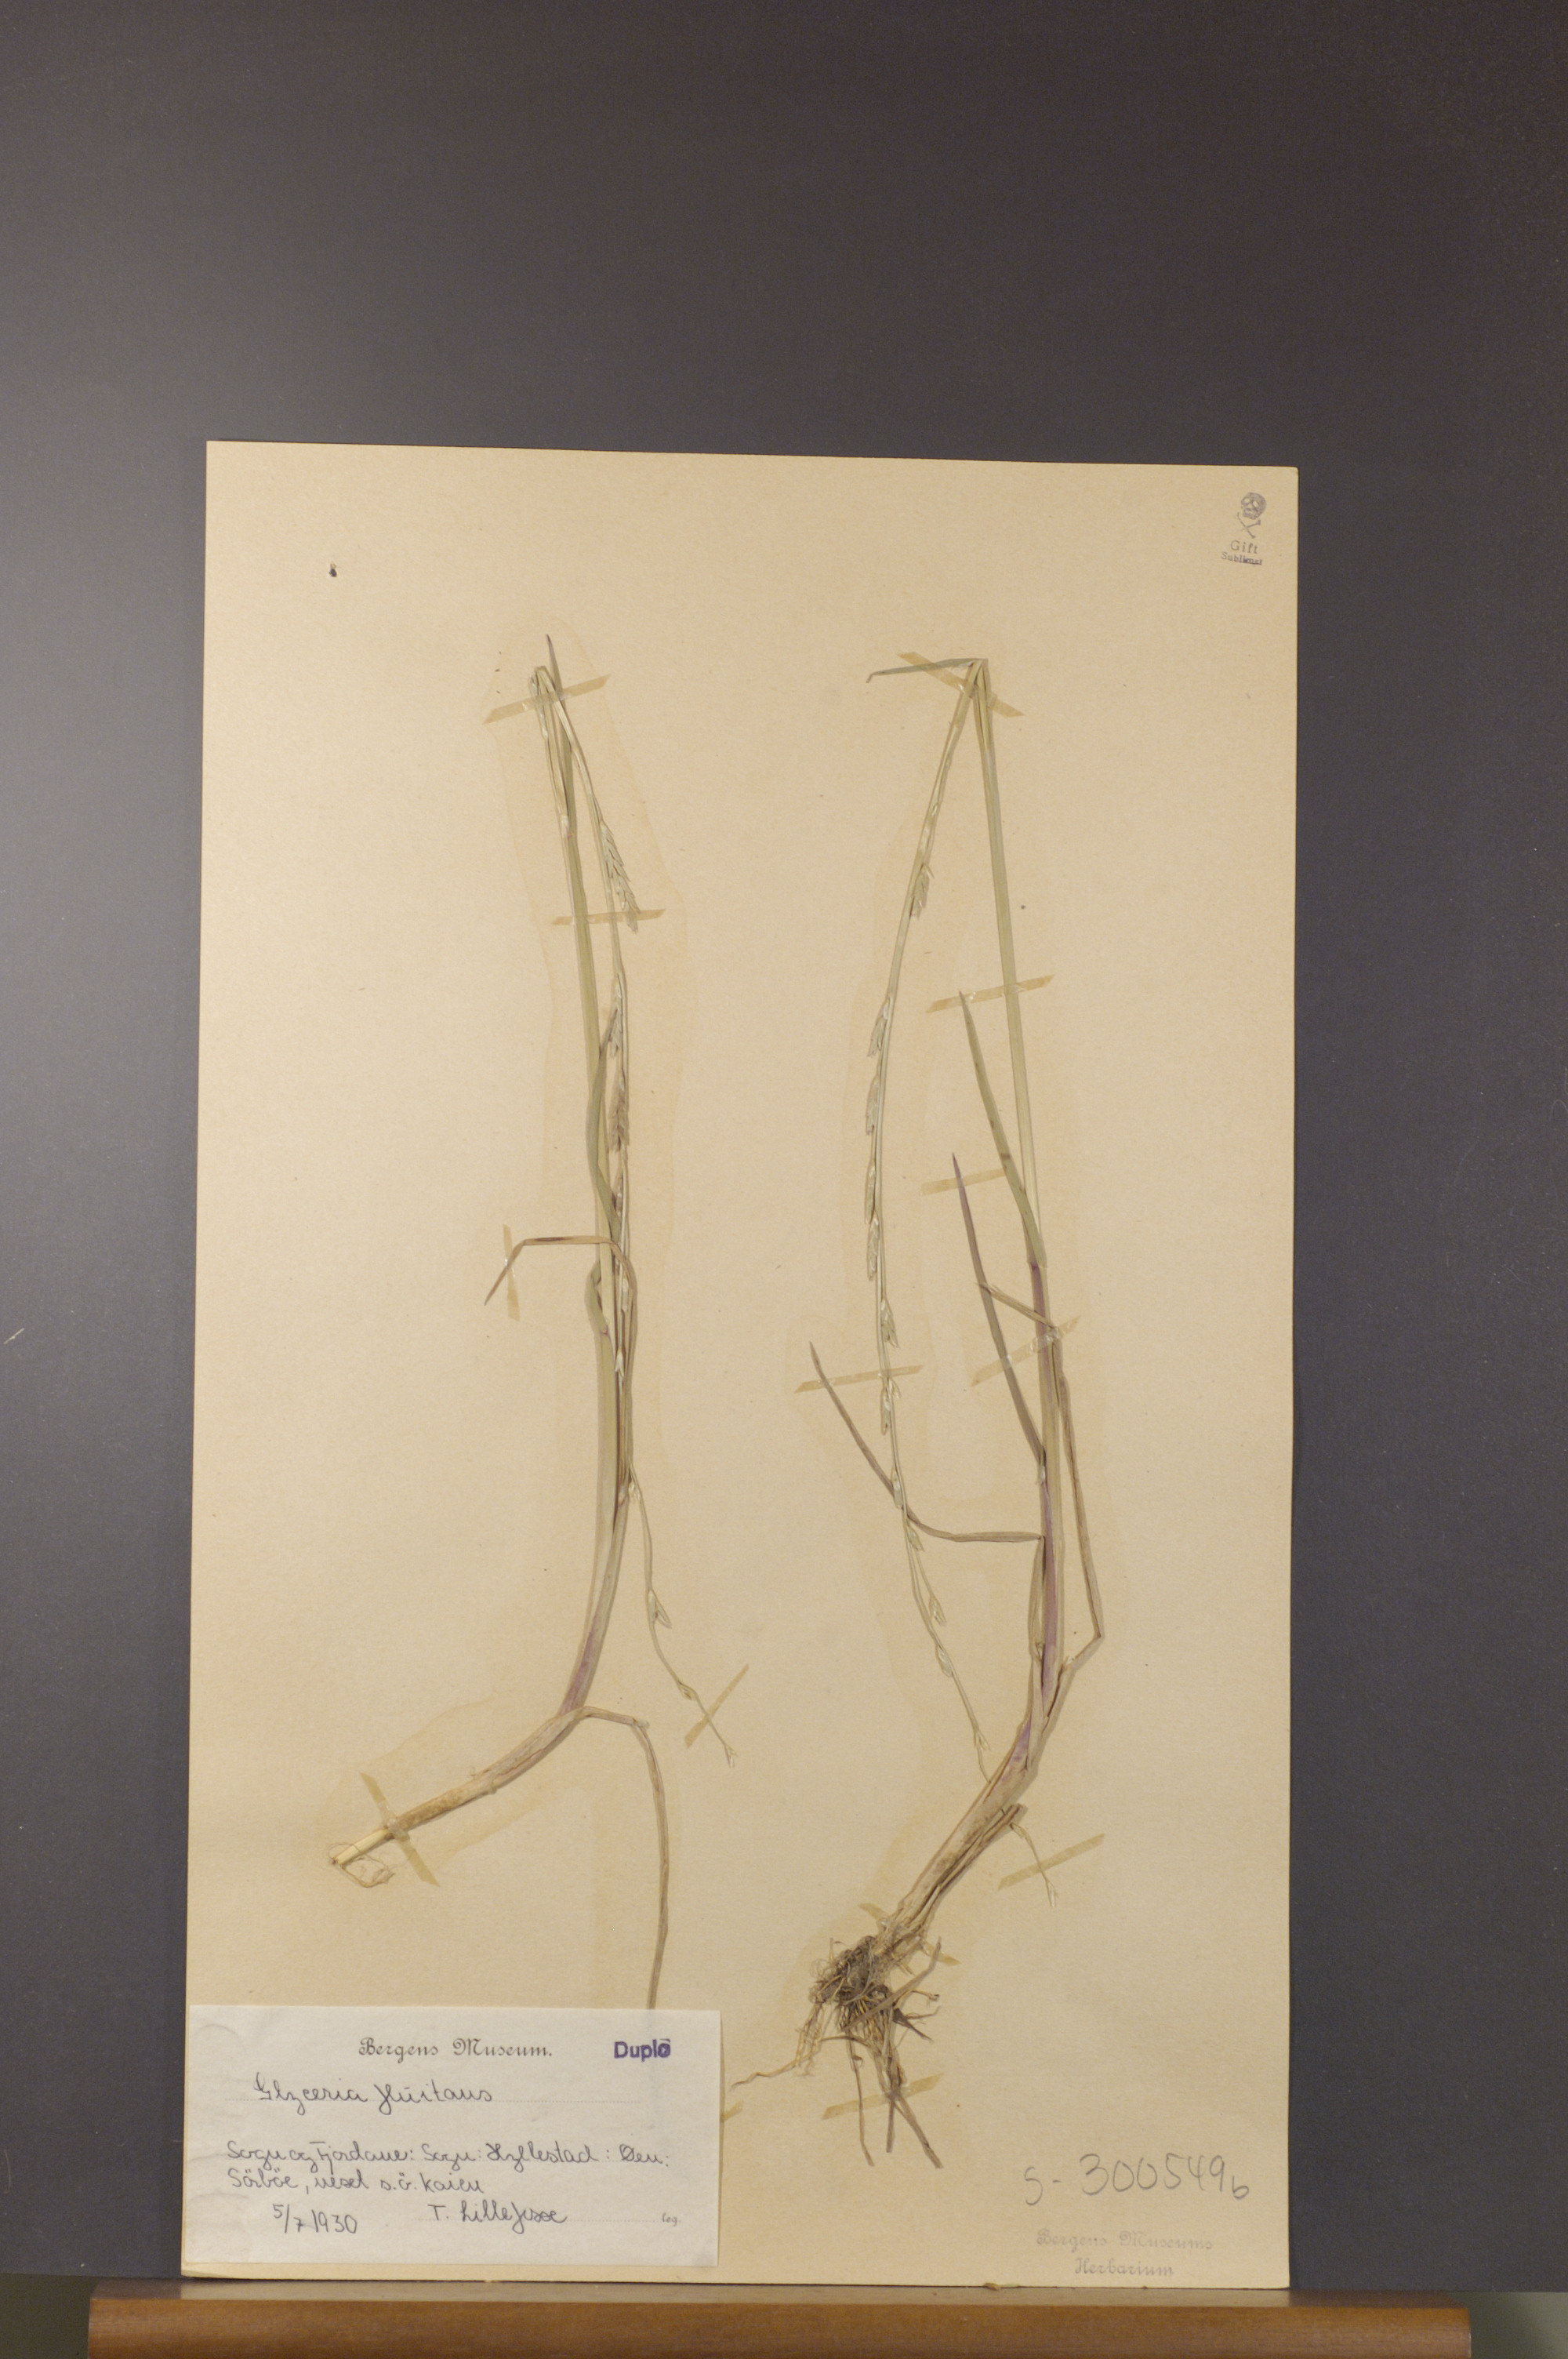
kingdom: Plantae
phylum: Tracheophyta
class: Liliopsida
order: Poales
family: Poaceae
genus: Glyceria
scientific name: Glyceria fluitans
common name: Floating sweet-grass
